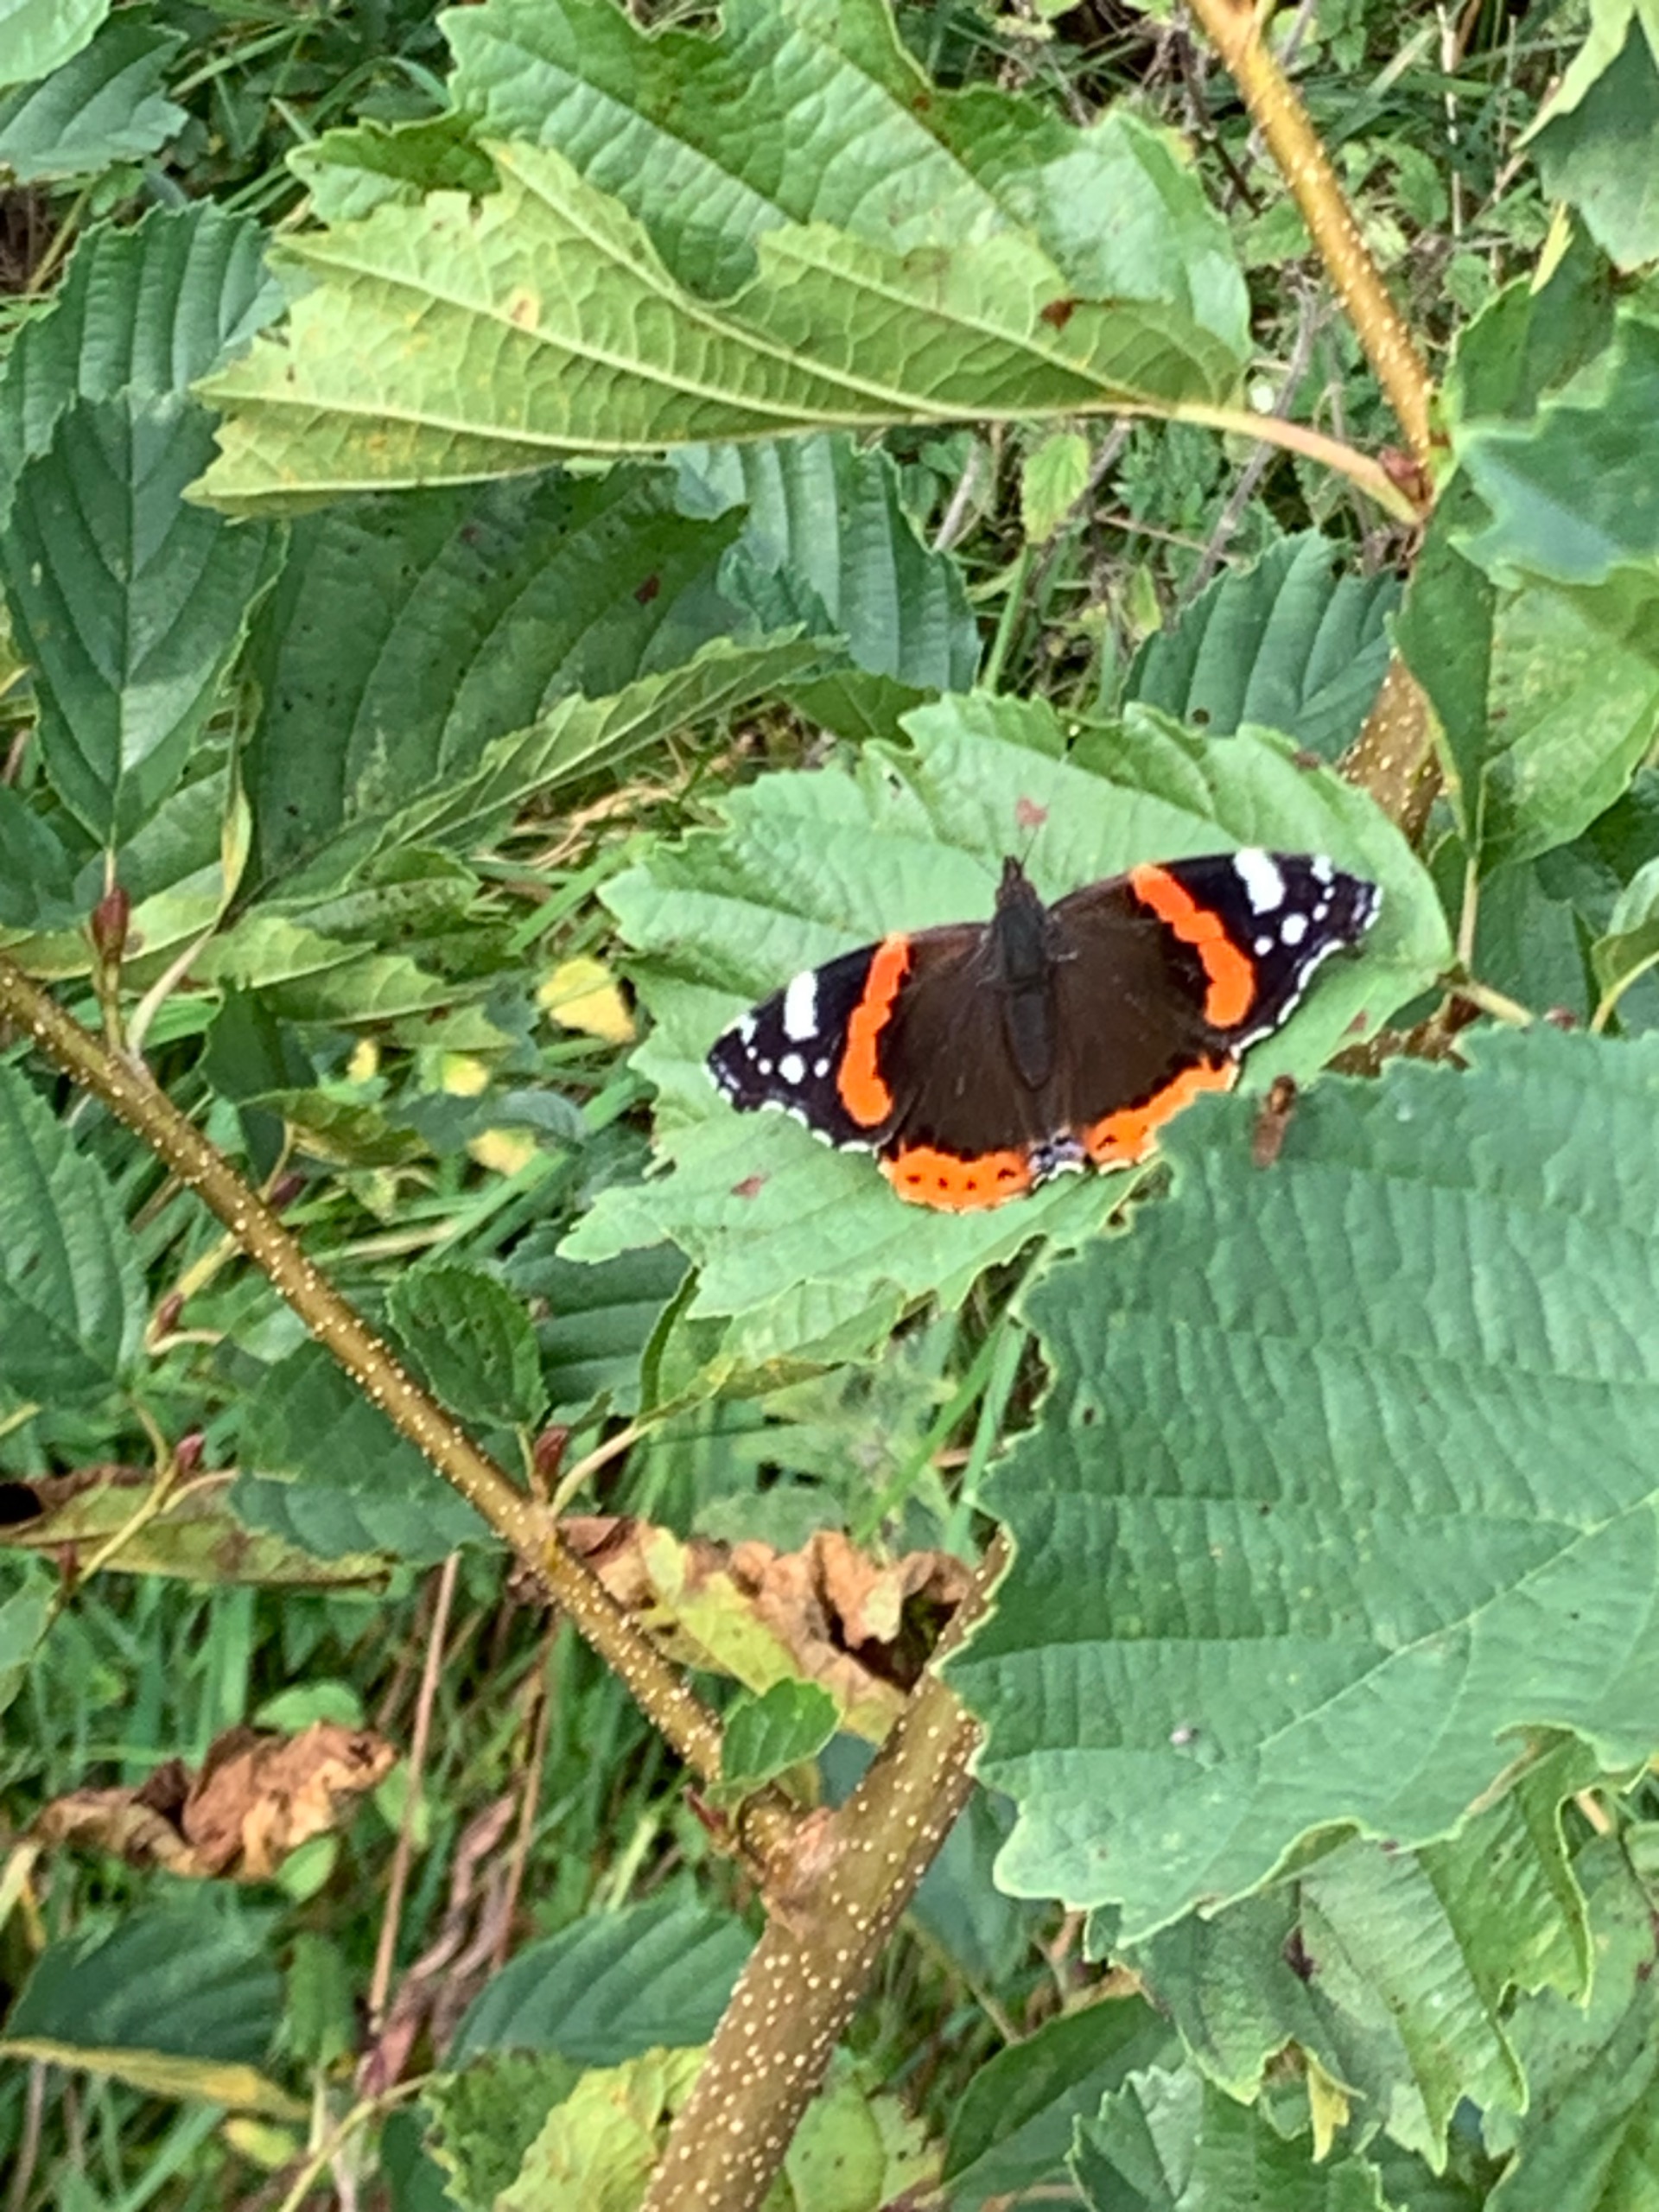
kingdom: Animalia
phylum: Arthropoda
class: Insecta
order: Lepidoptera
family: Nymphalidae
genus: Vanessa
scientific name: Vanessa atalanta
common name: Admiral
